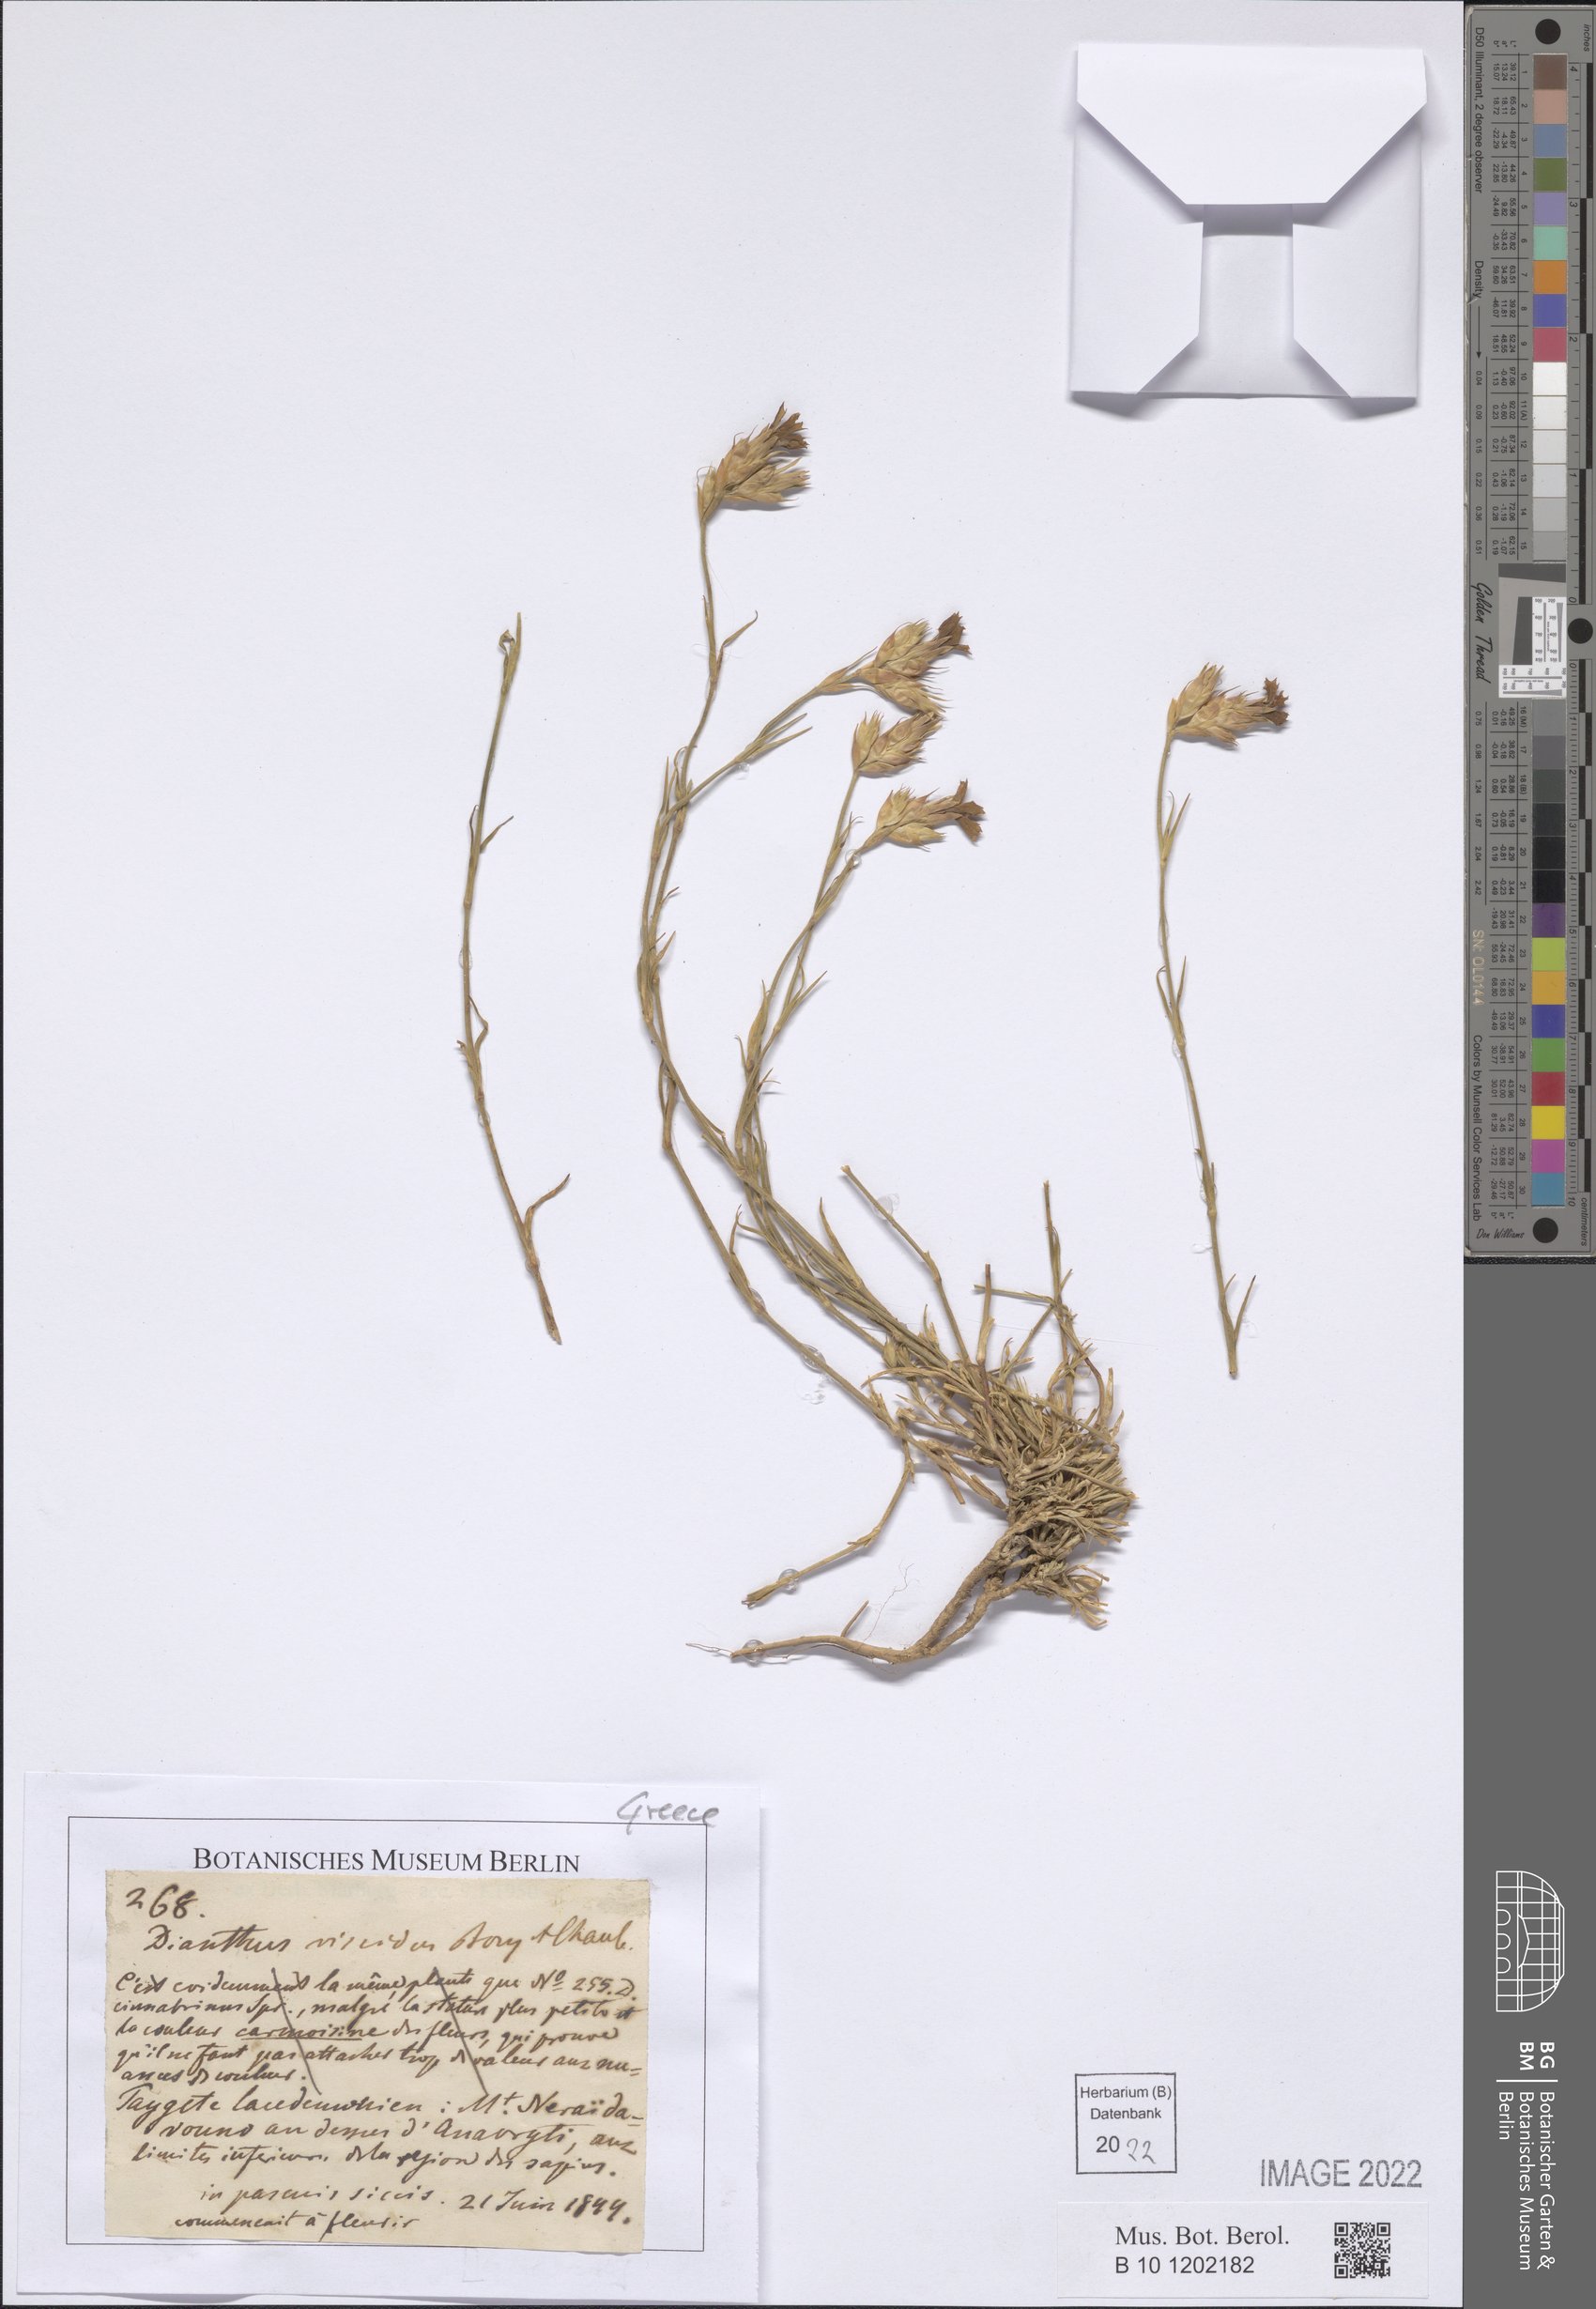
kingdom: Plantae
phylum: Tracheophyta
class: Magnoliopsida
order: Caryophyllales
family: Caryophyllaceae
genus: Dianthus
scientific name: Dianthus viscidus
